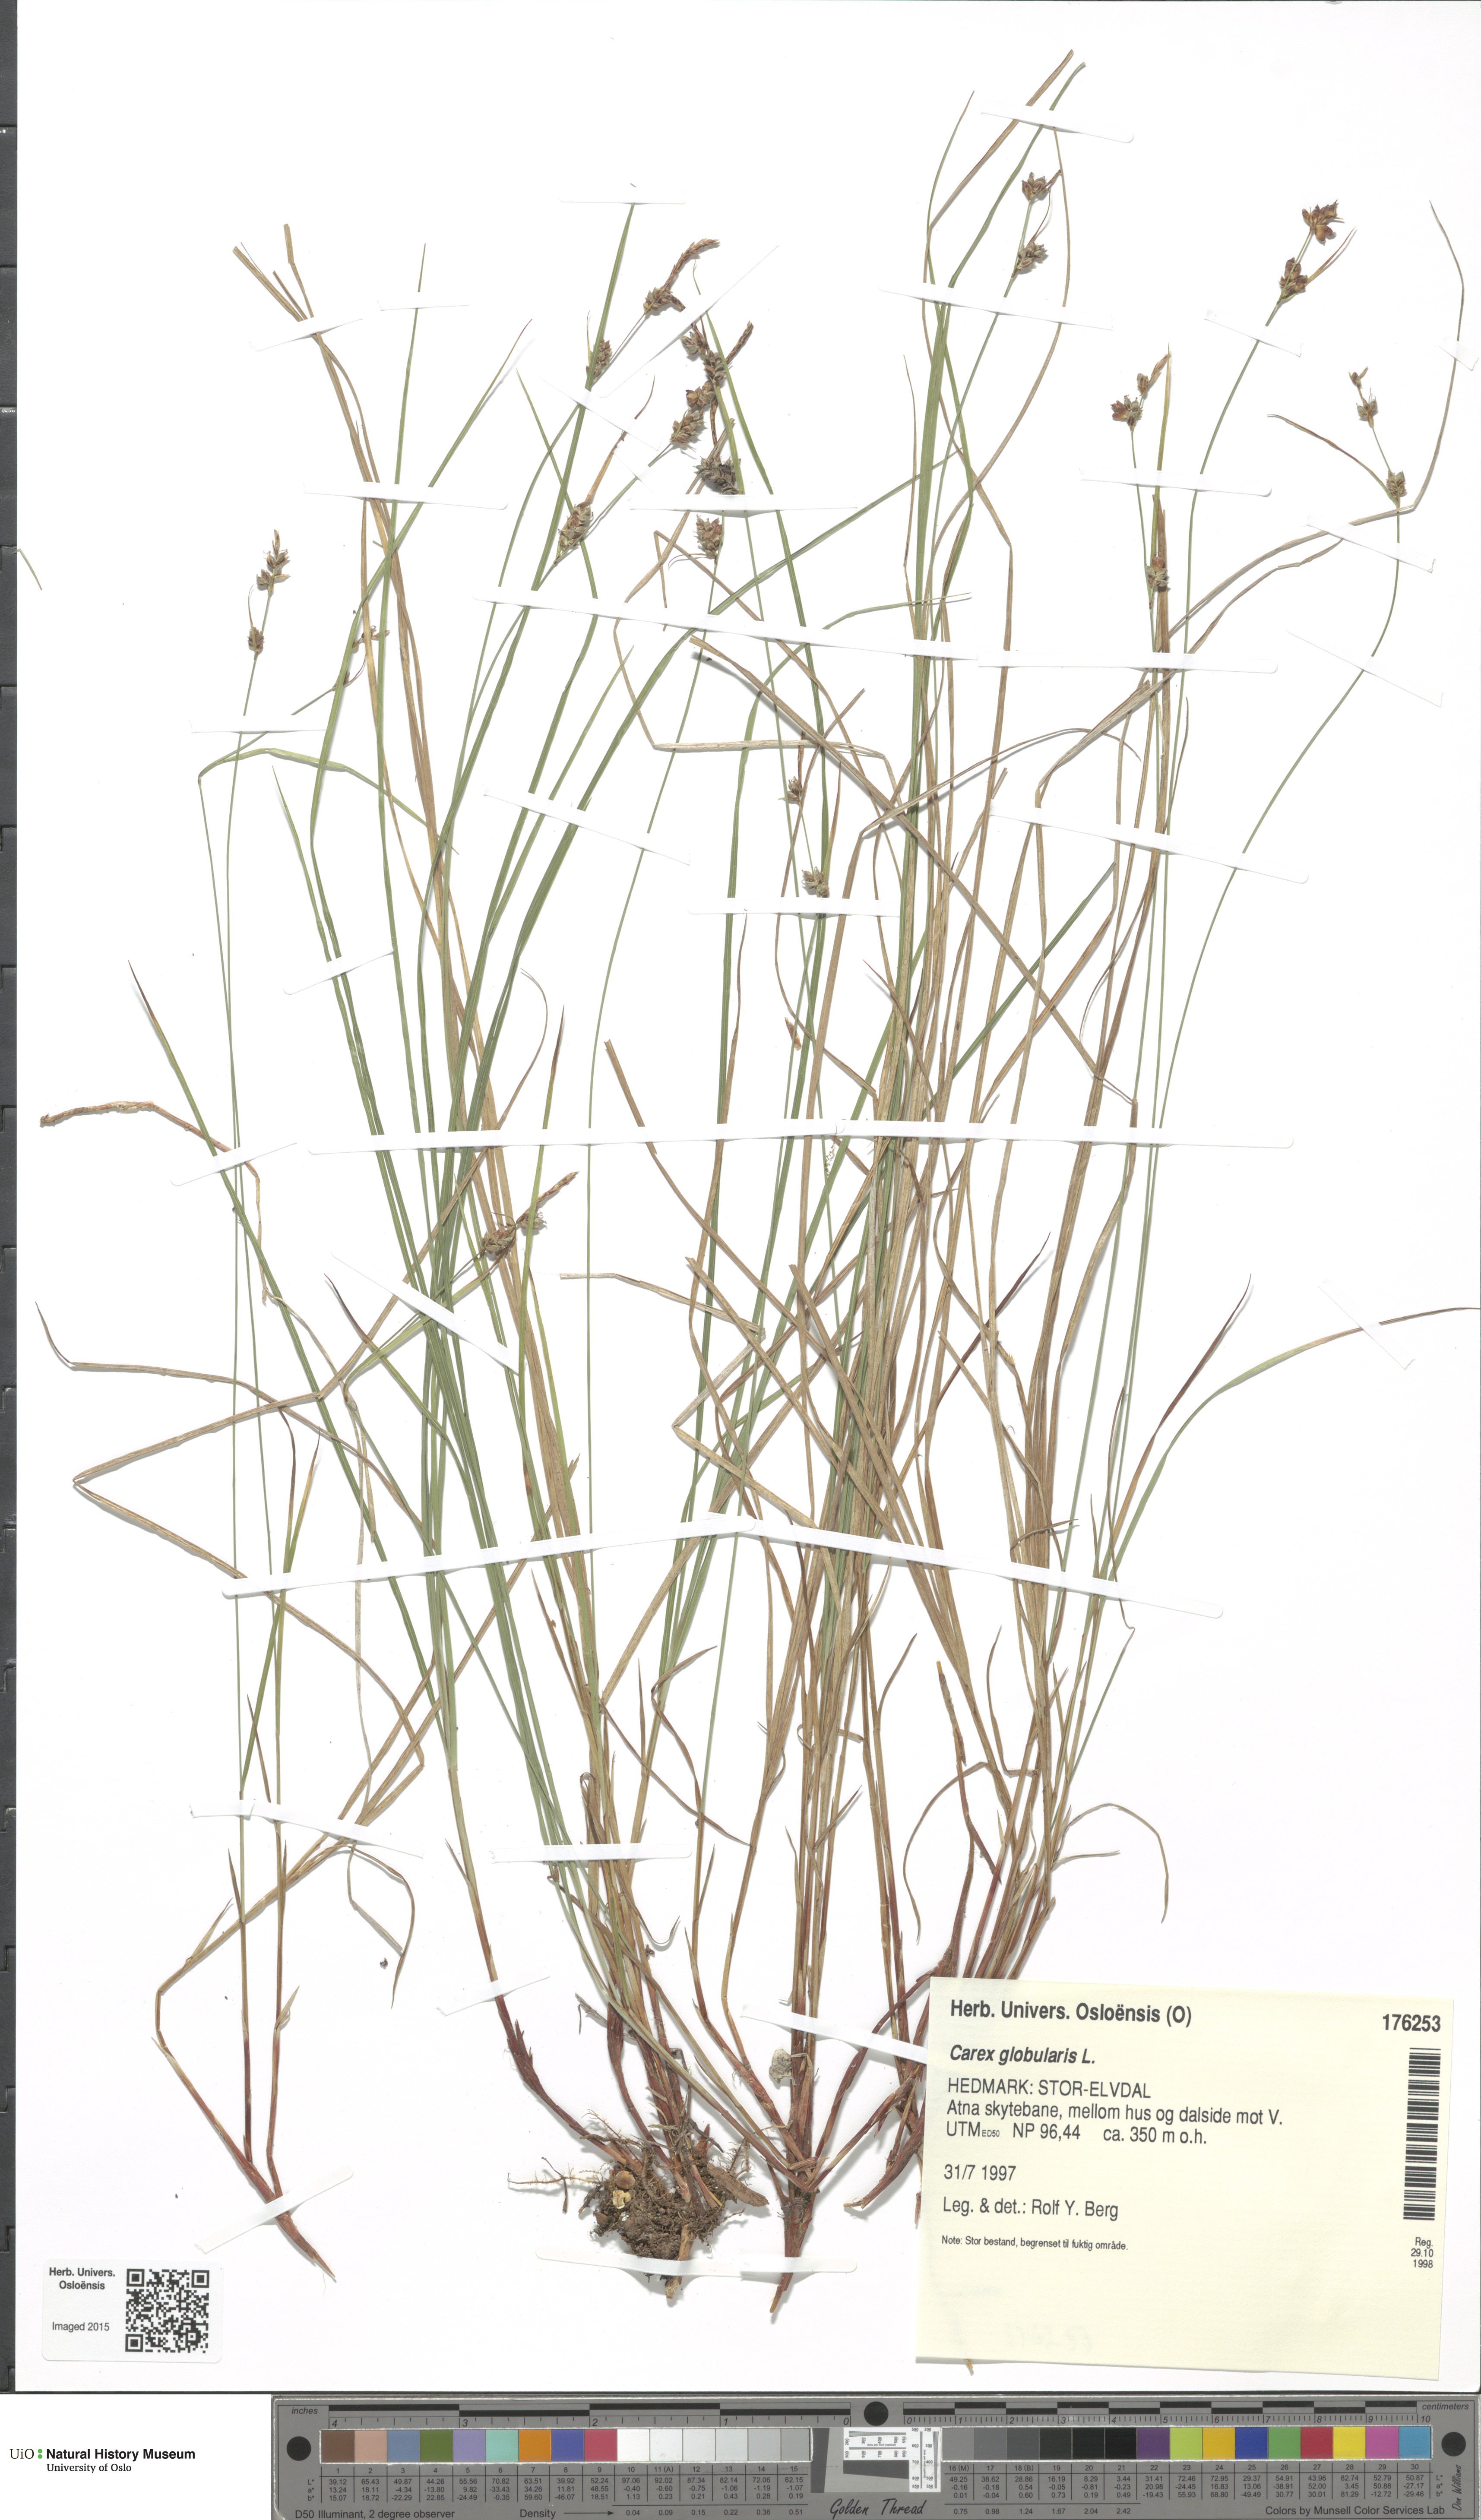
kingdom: Plantae
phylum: Tracheophyta
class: Liliopsida
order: Poales
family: Cyperaceae
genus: Carex
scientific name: Carex globularis
